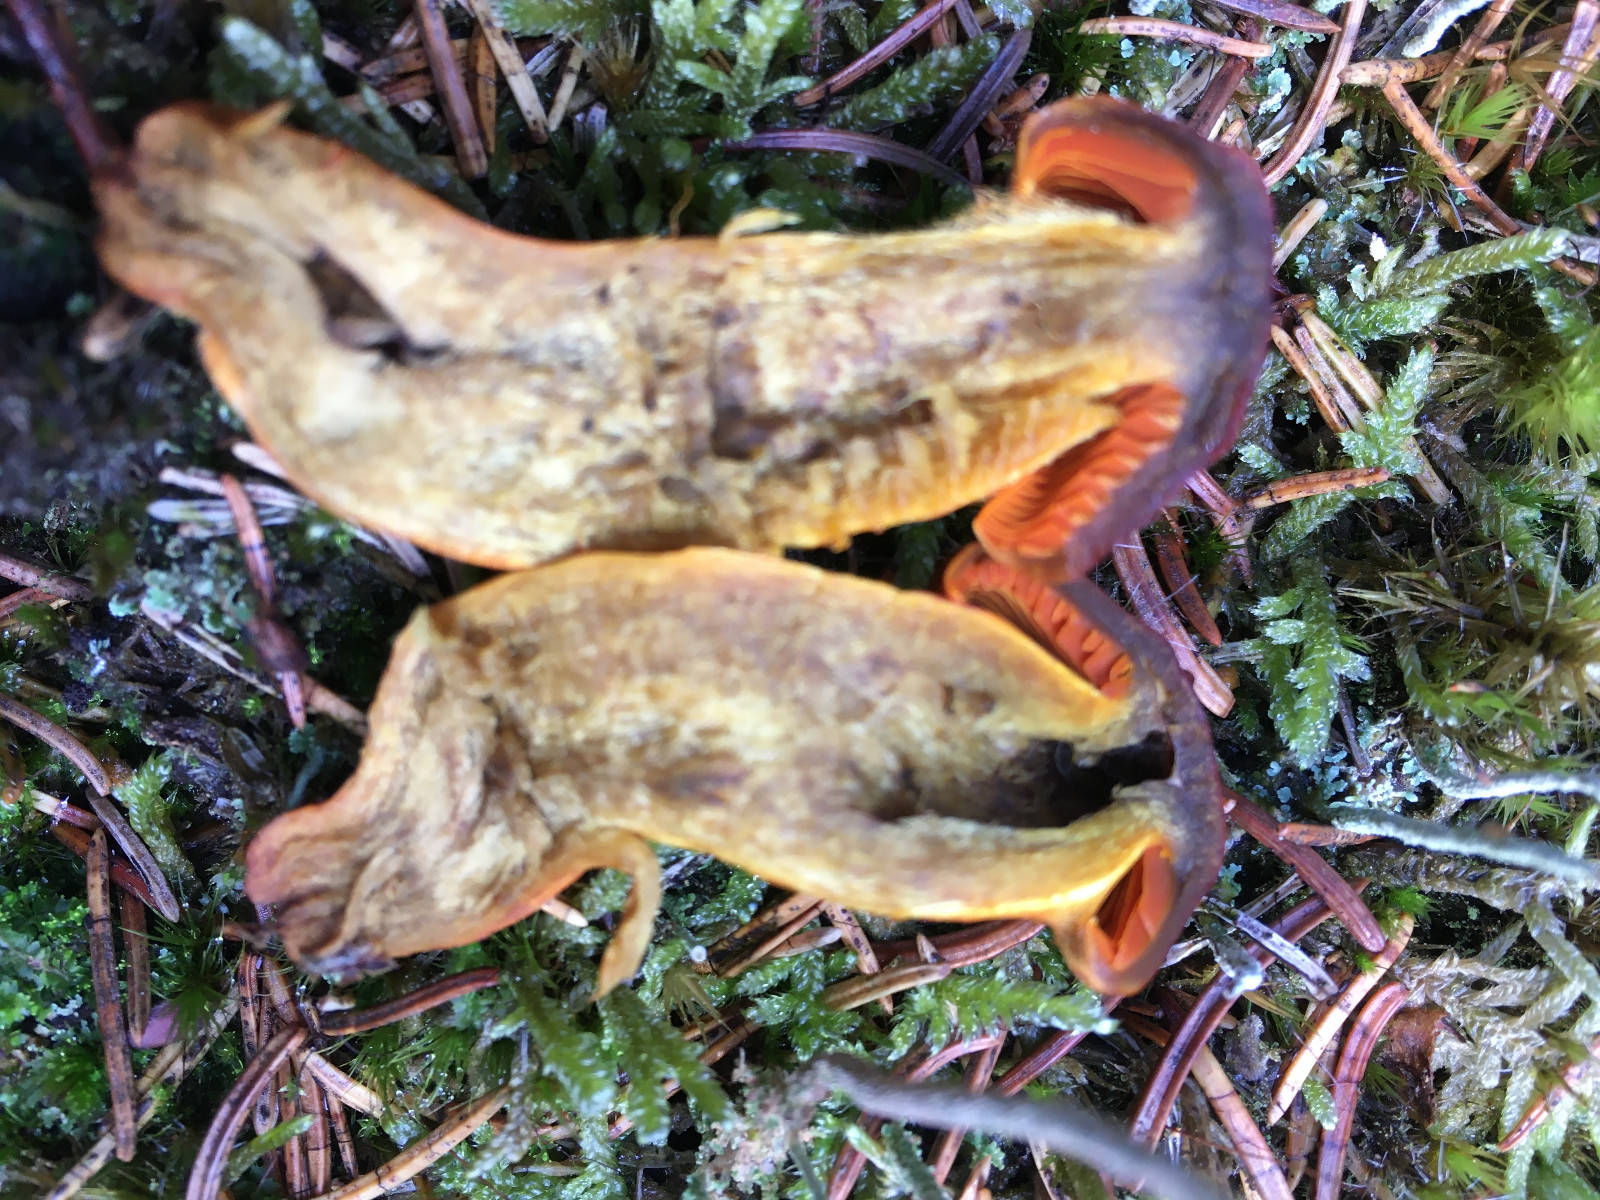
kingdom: Fungi
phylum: Basidiomycota
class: Agaricomycetes
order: Agaricales
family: Cortinariaceae
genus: Cortinarius
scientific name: Cortinarius malicorius
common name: grønkødet slørhat
